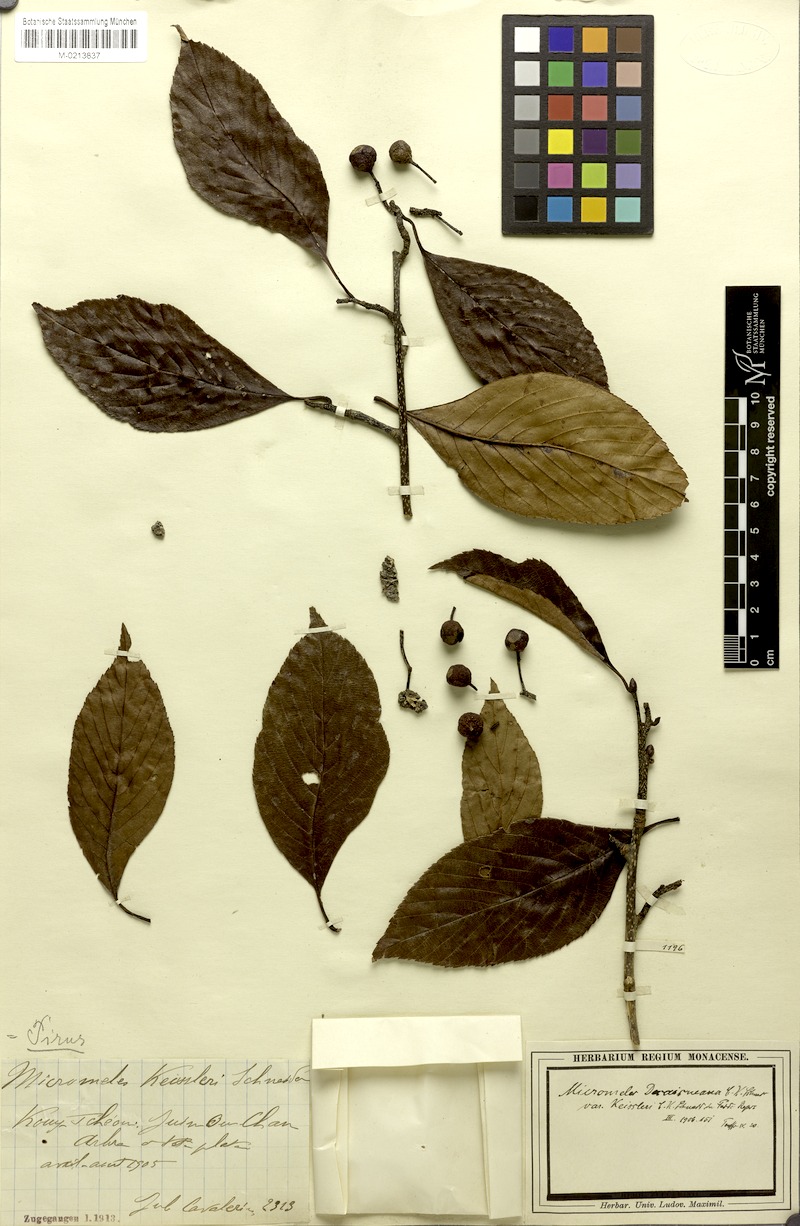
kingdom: Plantae
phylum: Tracheophyta
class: Magnoliopsida
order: Rosales
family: Rosaceae
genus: Sorbus
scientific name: Sorbus decaisneana
